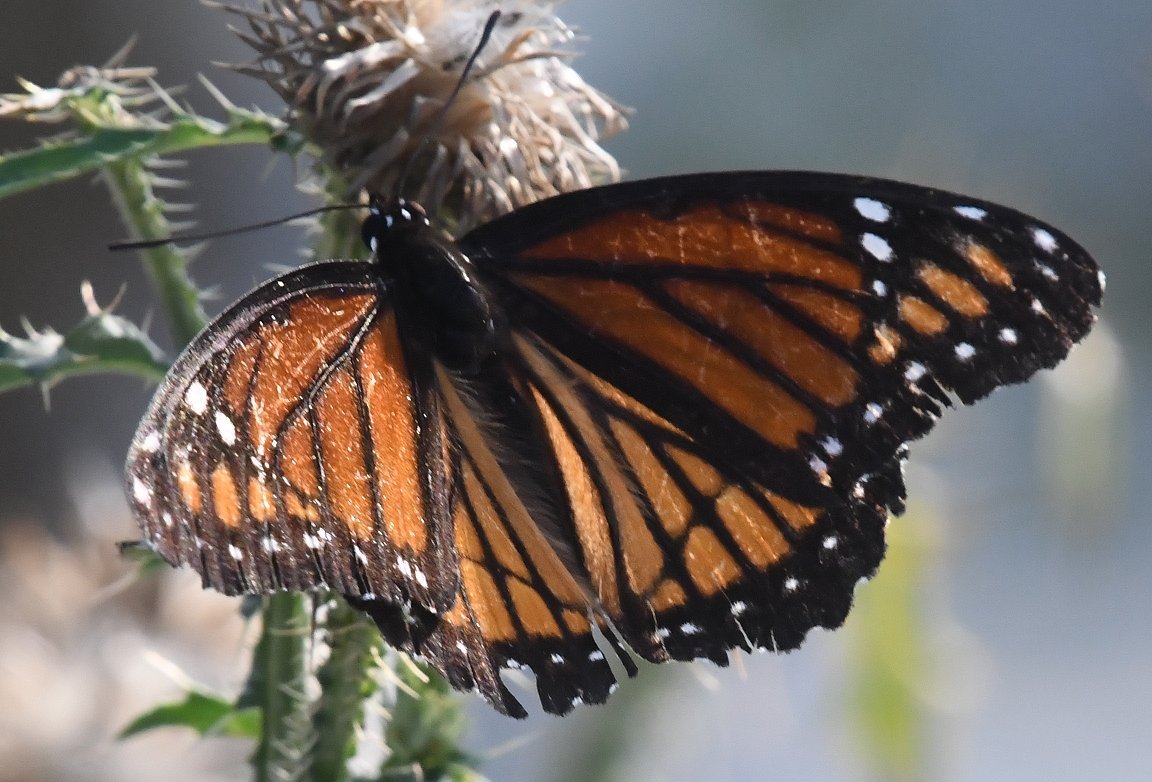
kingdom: Animalia
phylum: Arthropoda
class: Insecta
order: Lepidoptera
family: Nymphalidae
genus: Limenitis
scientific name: Limenitis archippus
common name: Viceroy
